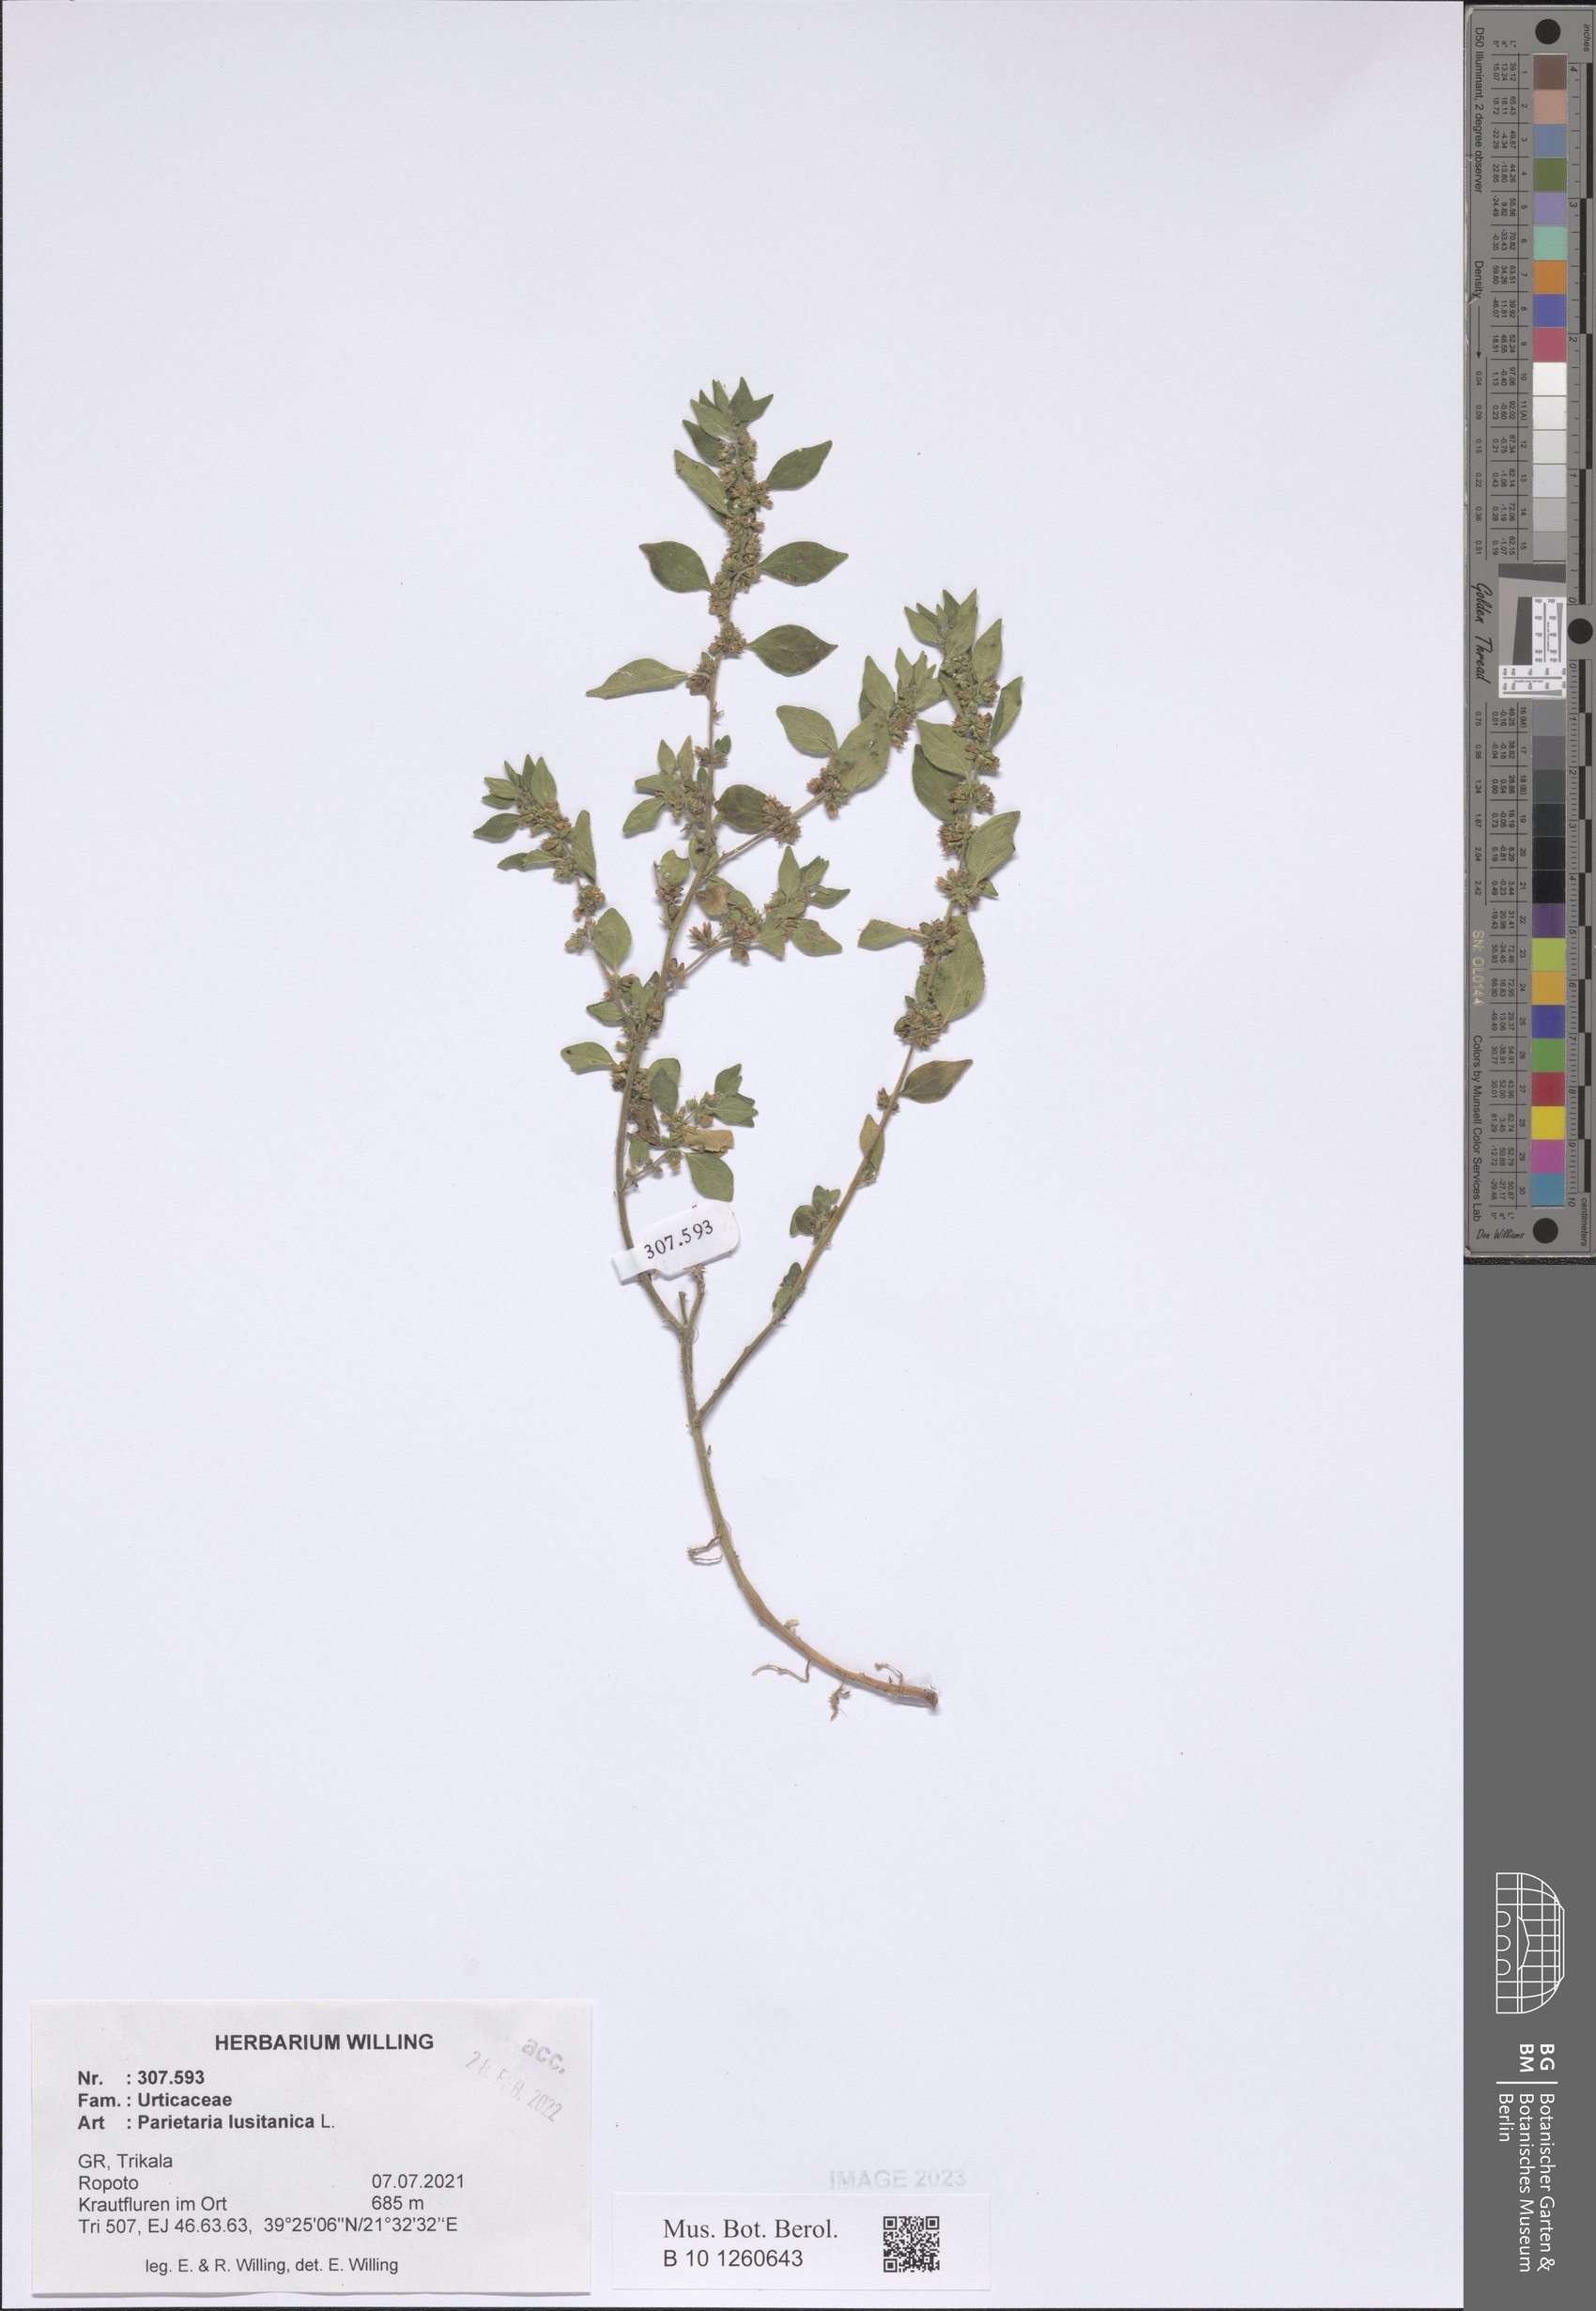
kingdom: Plantae
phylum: Tracheophyta
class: Magnoliopsida
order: Rosales
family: Urticaceae
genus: Parietaria
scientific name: Parietaria lusitanica
